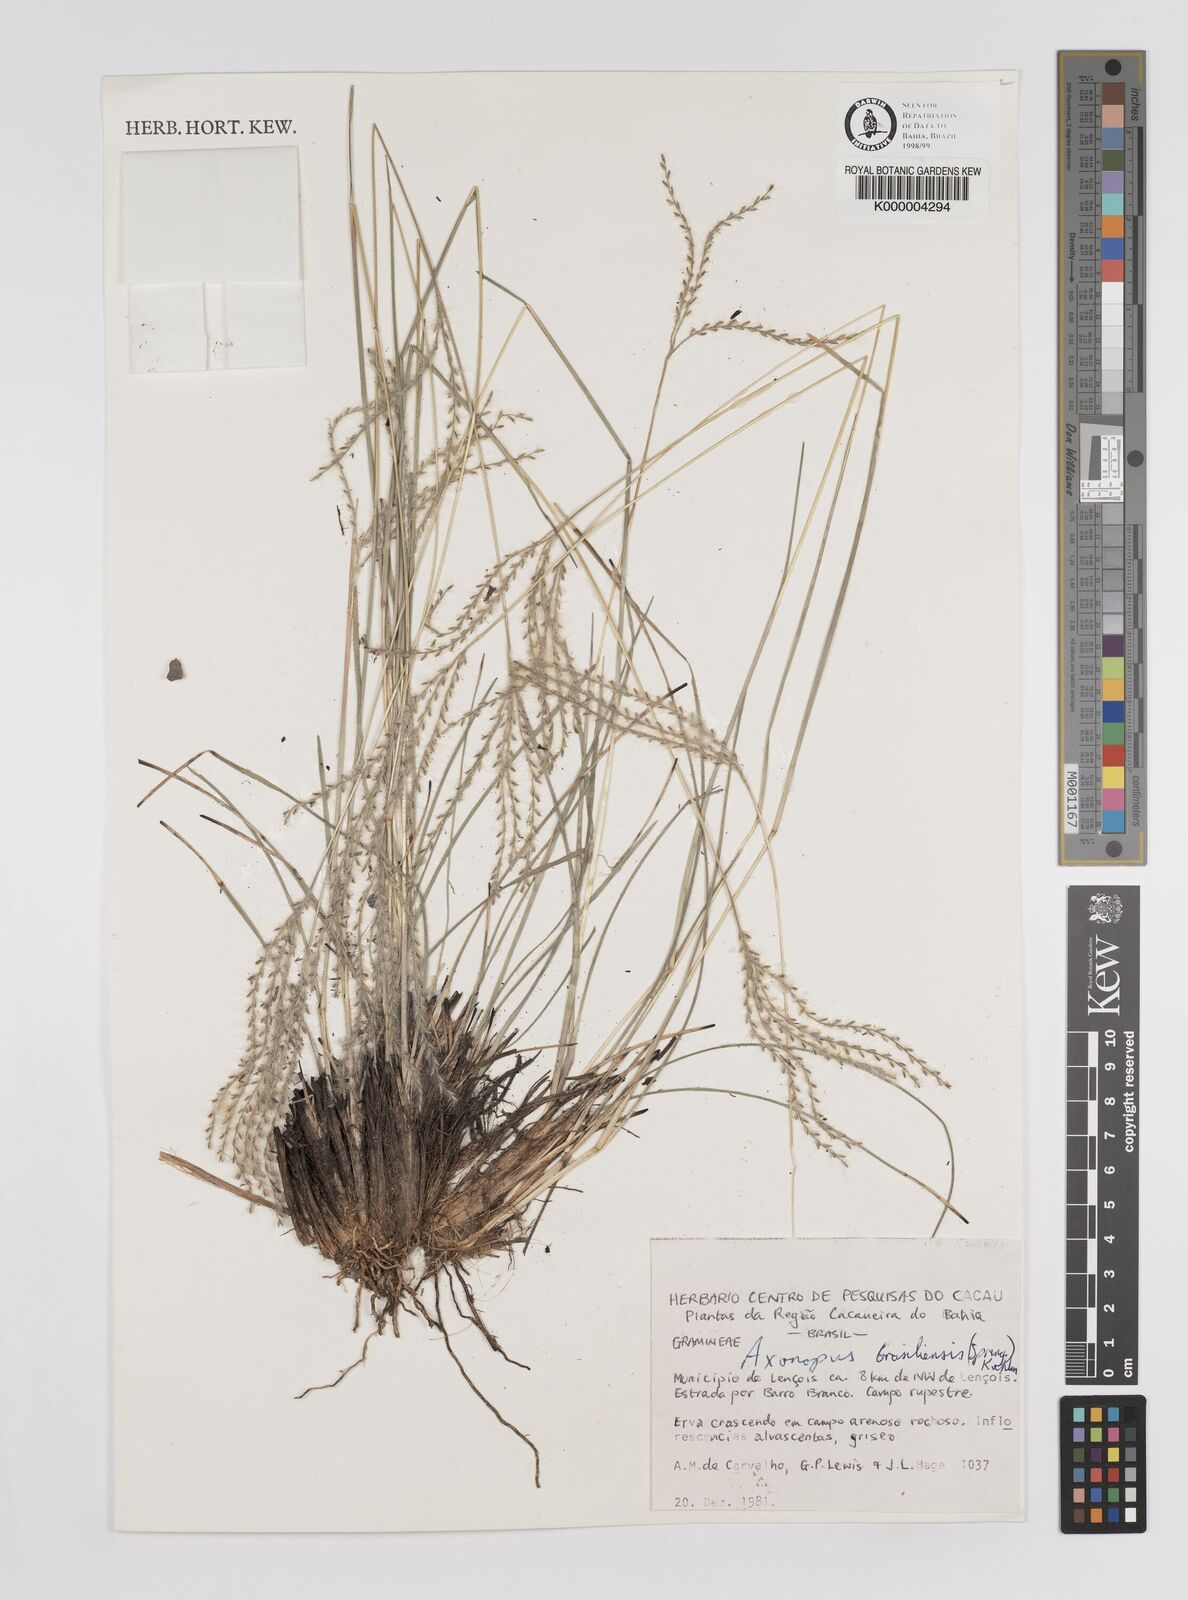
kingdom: Plantae
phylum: Tracheophyta
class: Liliopsida
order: Poales
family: Poaceae
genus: Axonopus
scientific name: Axonopus brasiliensis
